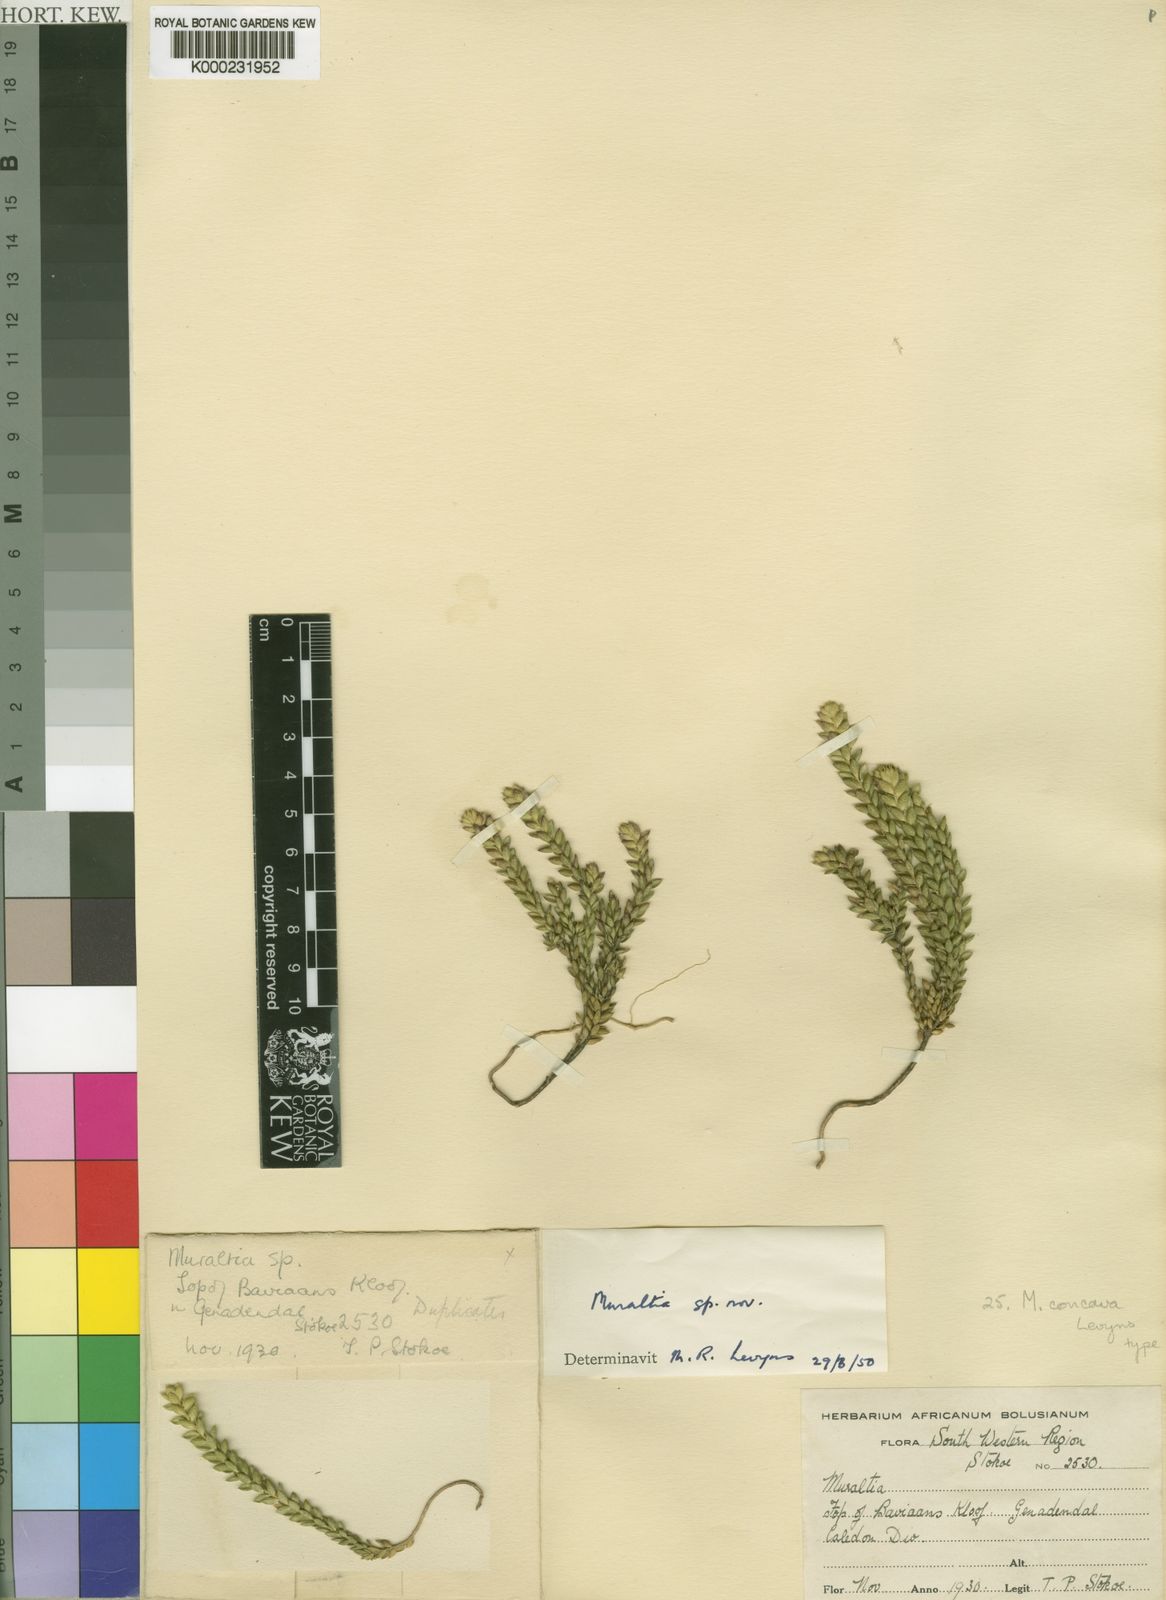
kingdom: Plantae
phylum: Tracheophyta
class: Magnoliopsida
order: Fabales
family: Polygalaceae
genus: Muraltia
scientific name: Muraltia concava
